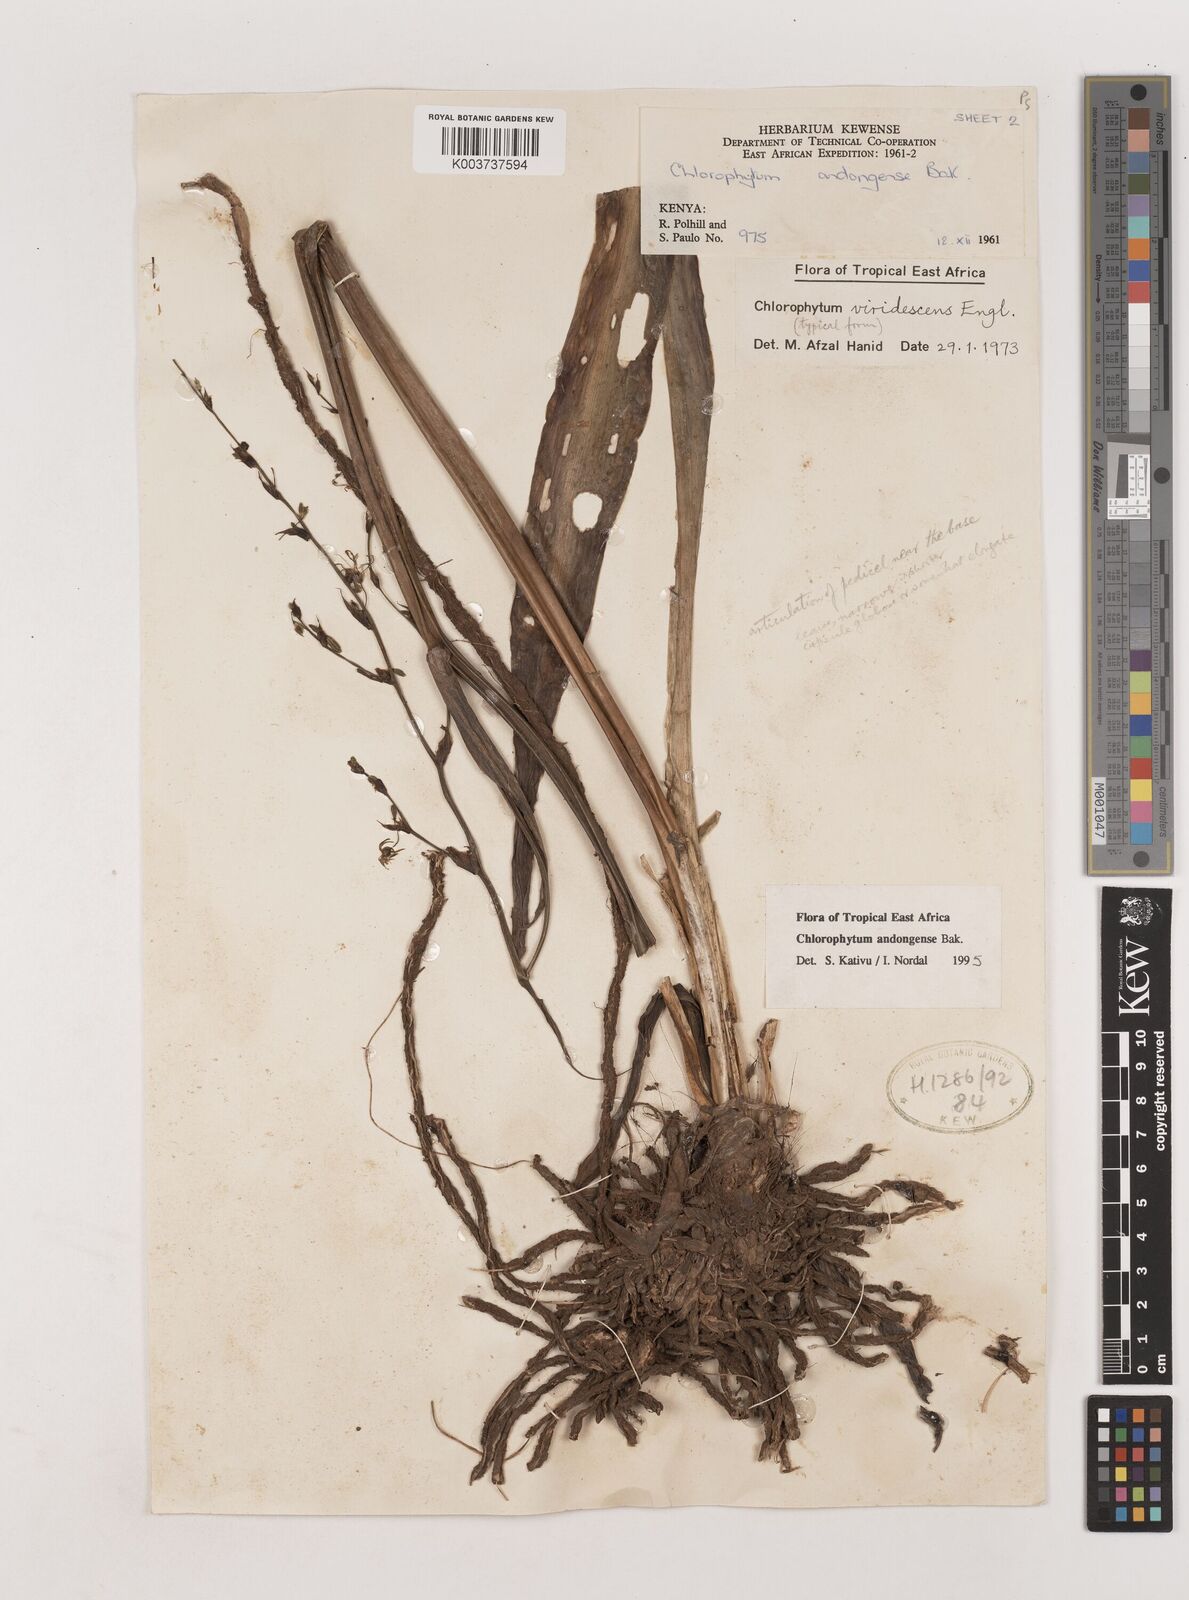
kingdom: Plantae
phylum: Tracheophyta
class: Liliopsida
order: Asparagales
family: Asparagaceae
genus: Chlorophytum
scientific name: Chlorophytum andongense
